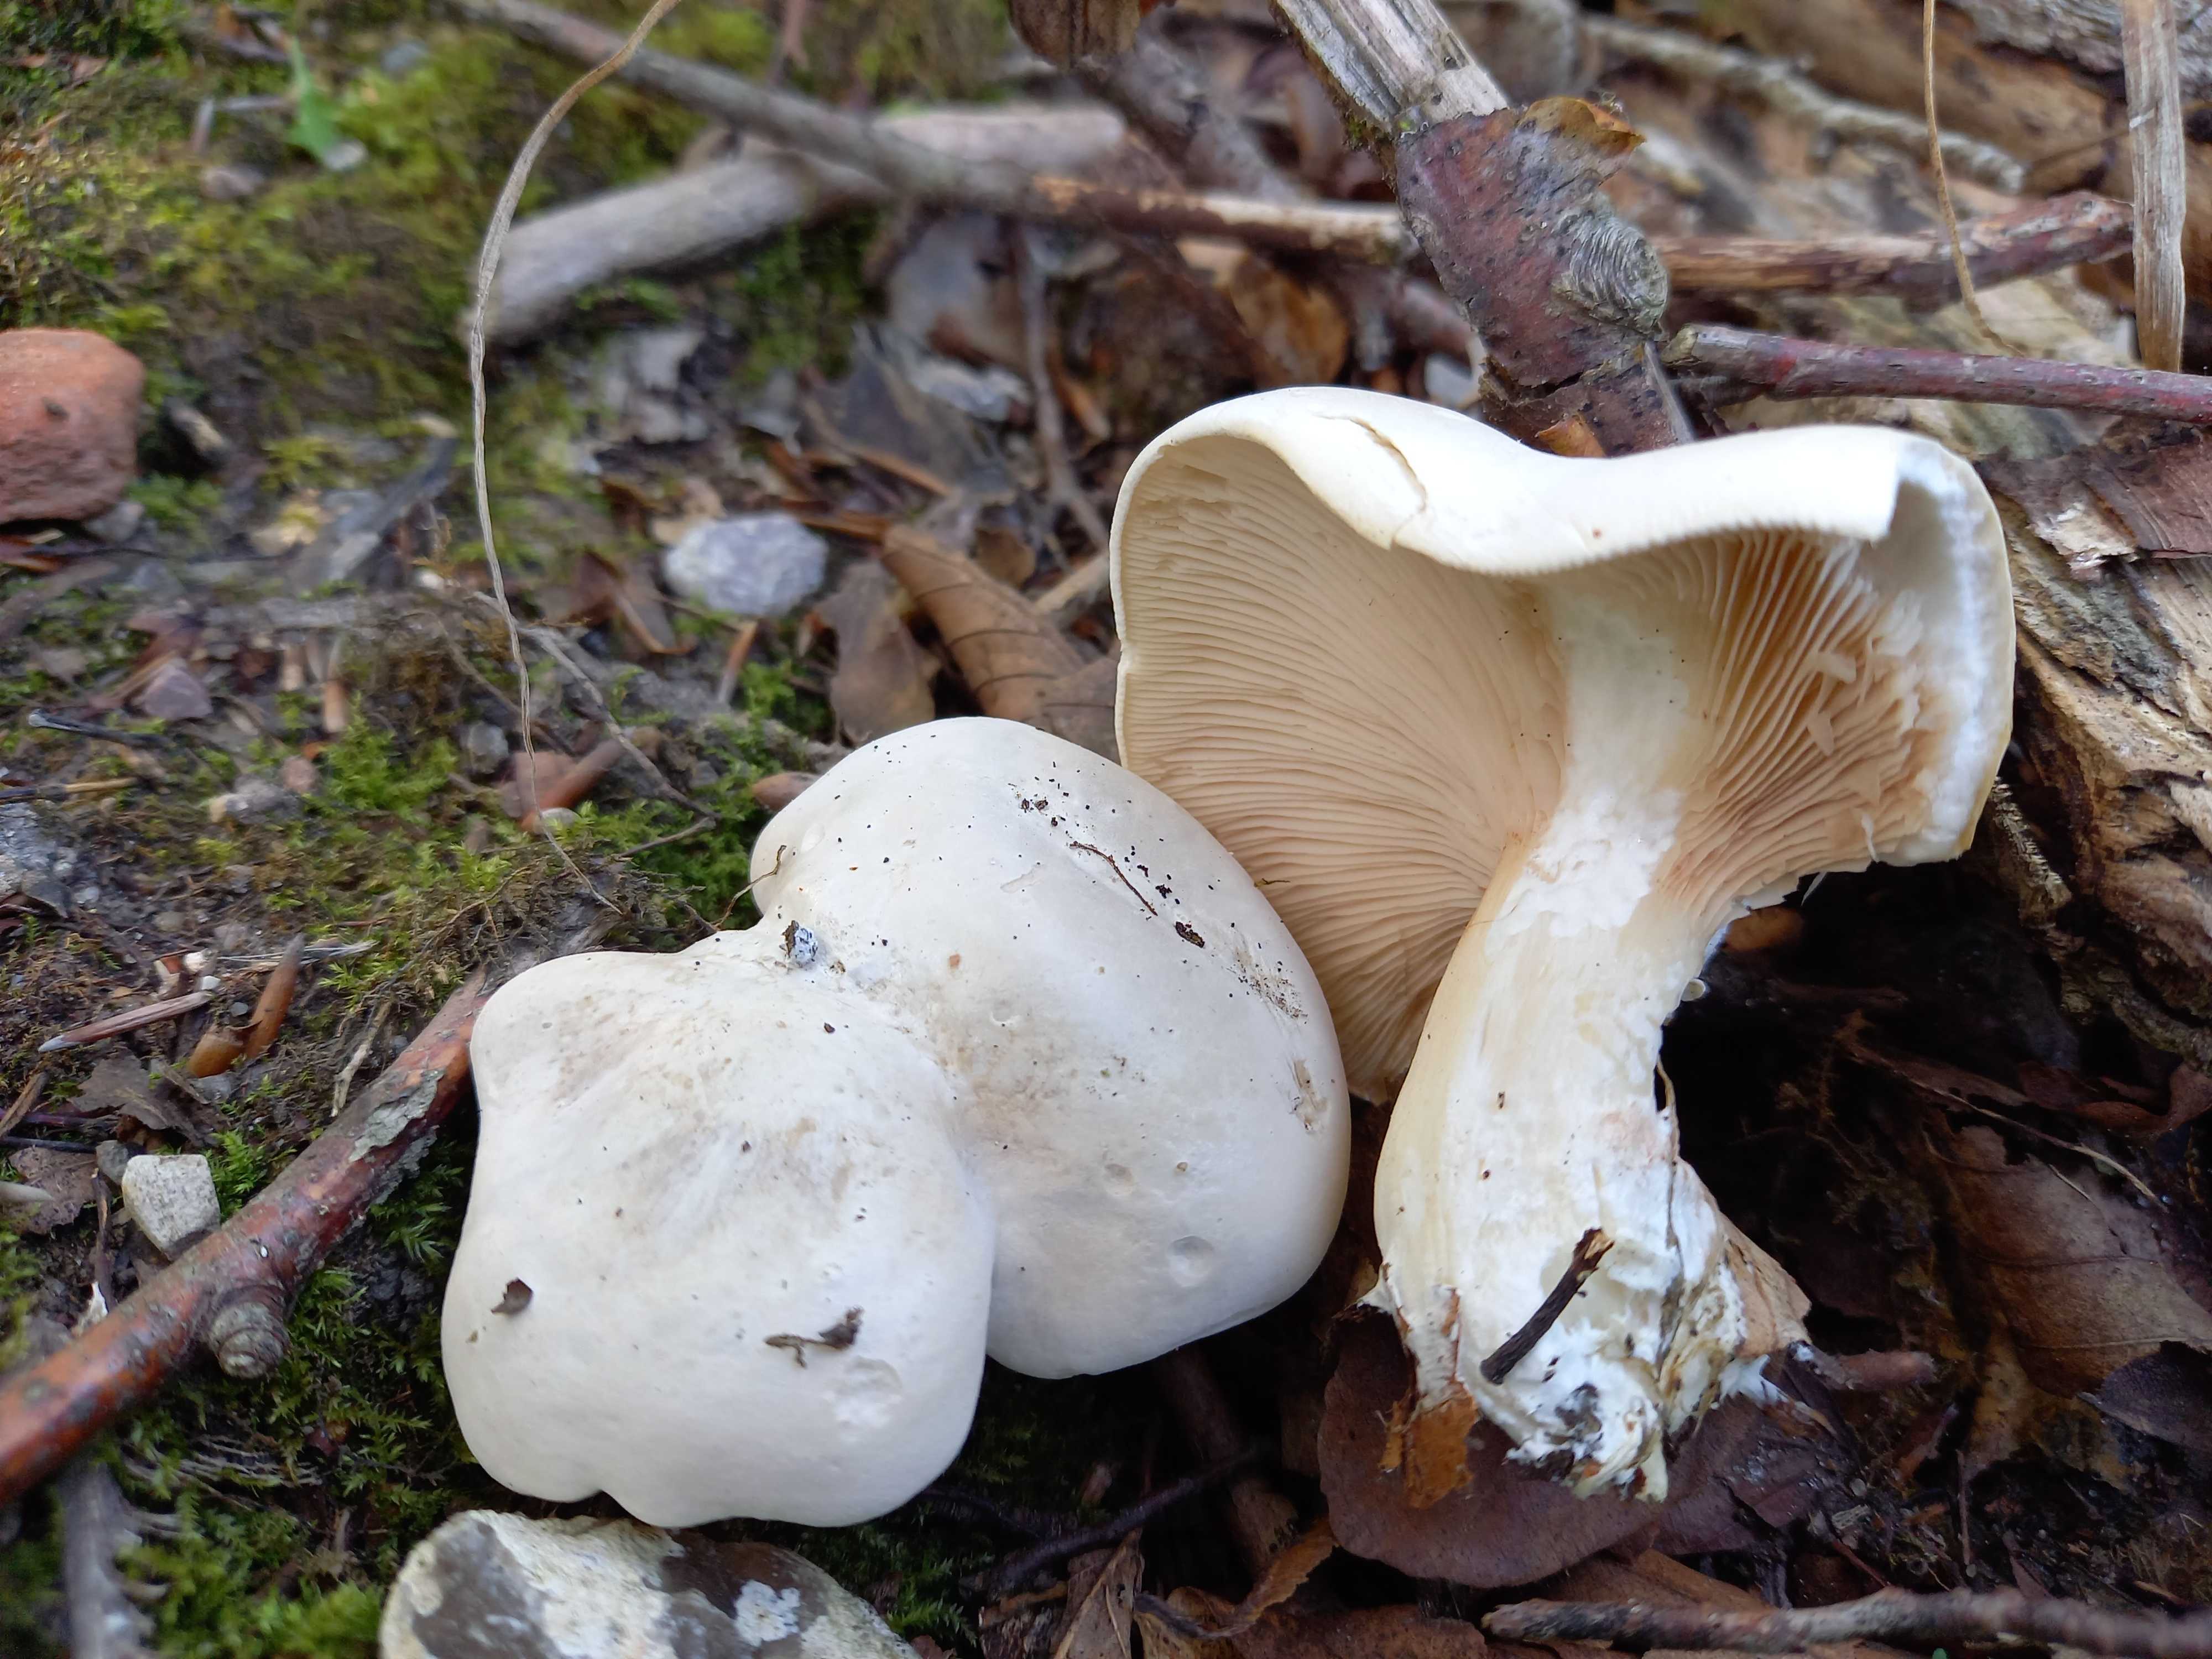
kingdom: Fungi
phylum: Basidiomycota
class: Agaricomycetes
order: Agaricales
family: Entolomataceae
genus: Clitopilus
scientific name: Clitopilus prunulus
